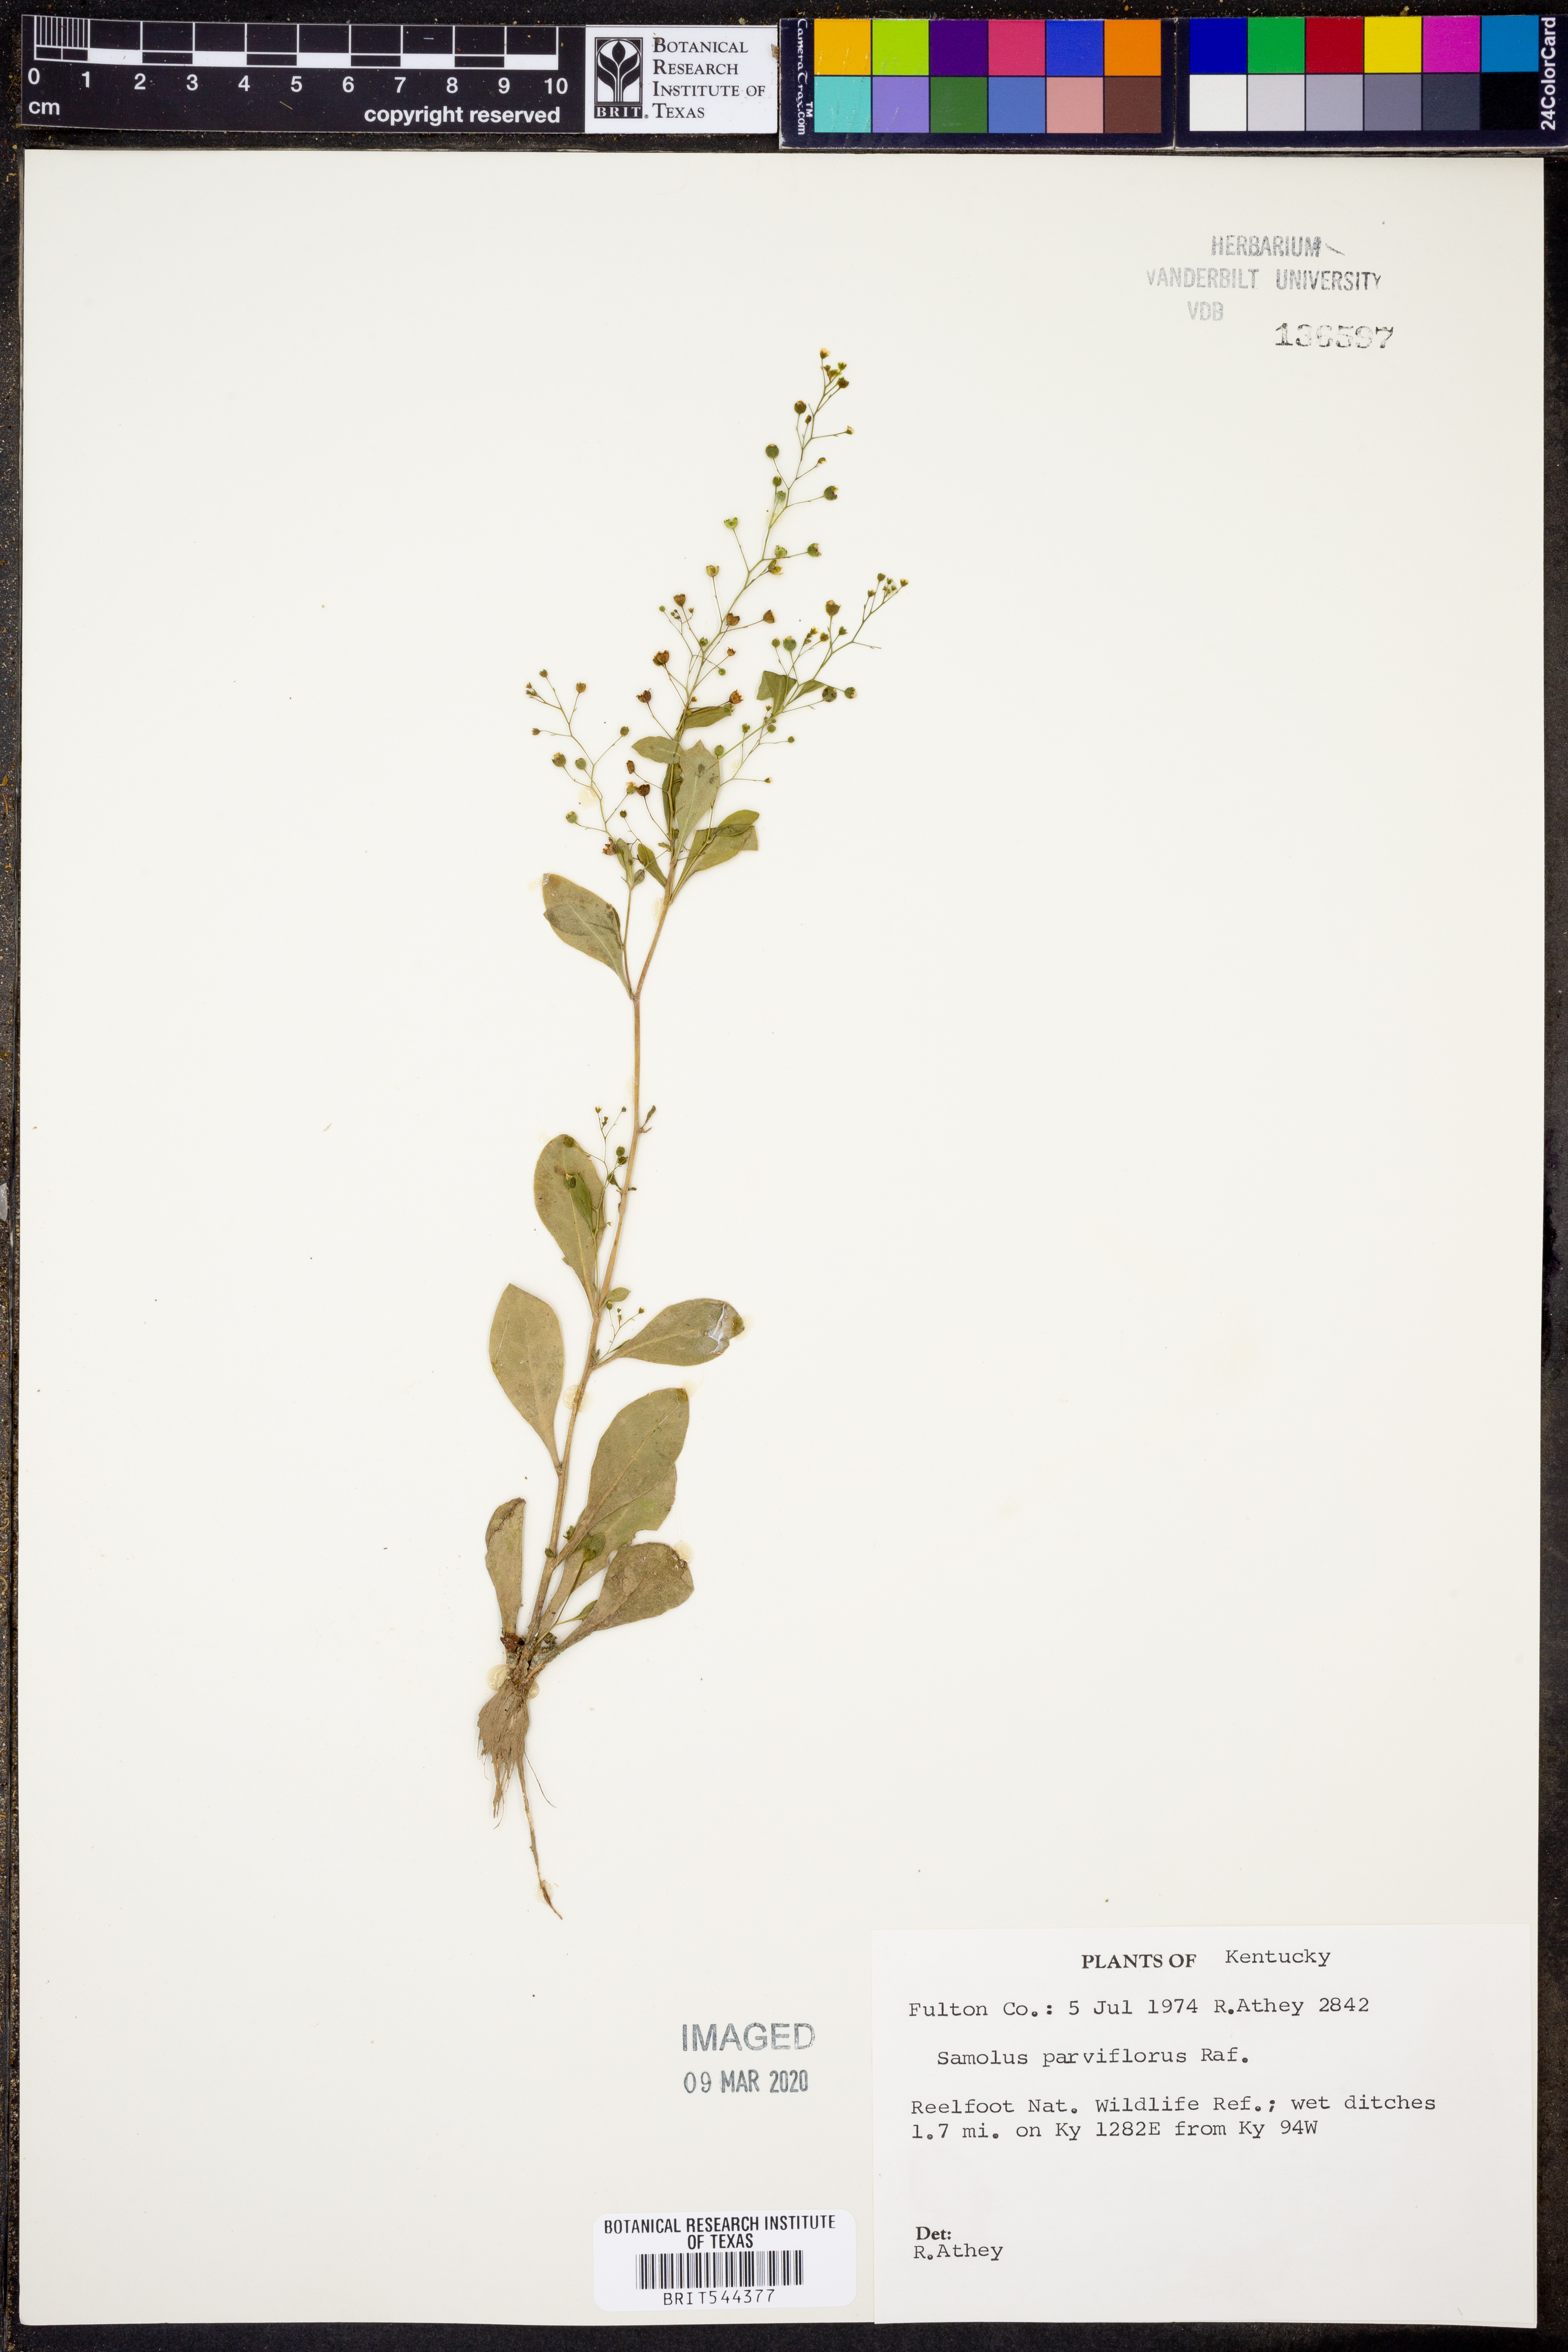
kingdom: Plantae
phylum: Tracheophyta
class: Magnoliopsida
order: Ericales
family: Primulaceae
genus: Samolus
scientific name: Samolus parviflorus
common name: False water pimpernel
